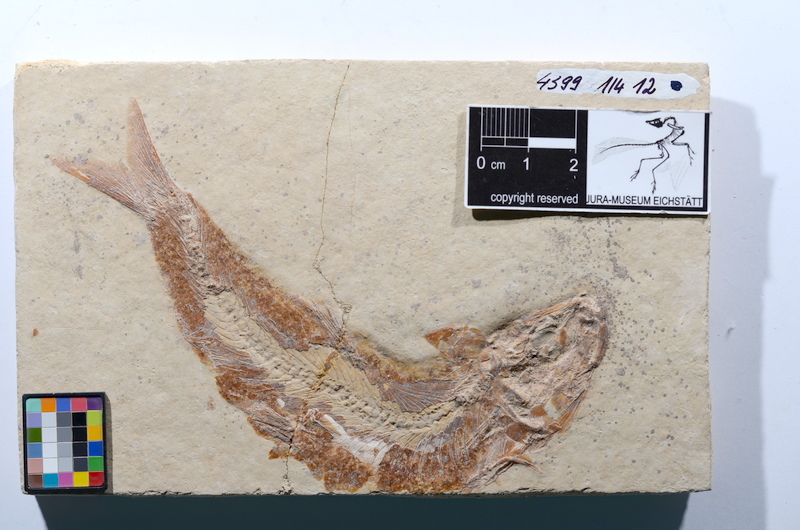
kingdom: Animalia
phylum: Chordata
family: Ascalaboidae
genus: Tharsis
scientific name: Tharsis dubius
